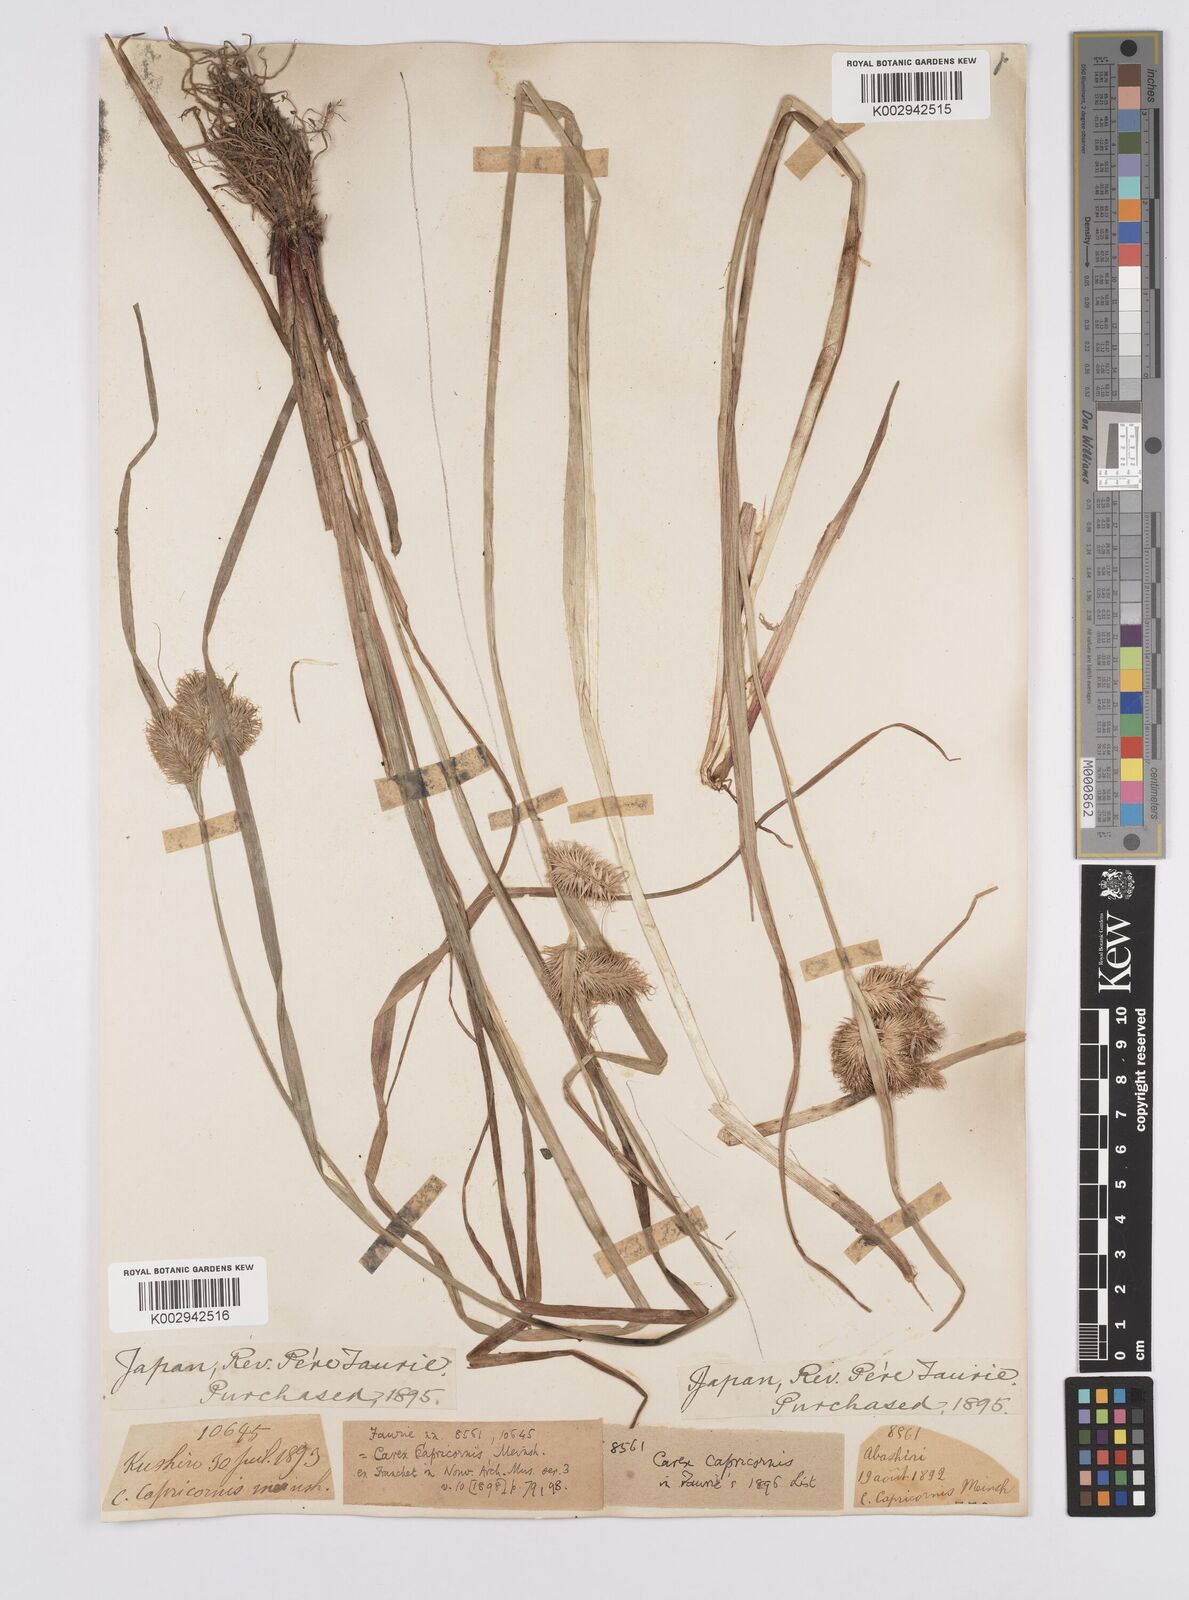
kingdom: Plantae
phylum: Tracheophyta
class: Liliopsida
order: Poales
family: Cyperaceae
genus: Carex
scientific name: Carex capricornis
